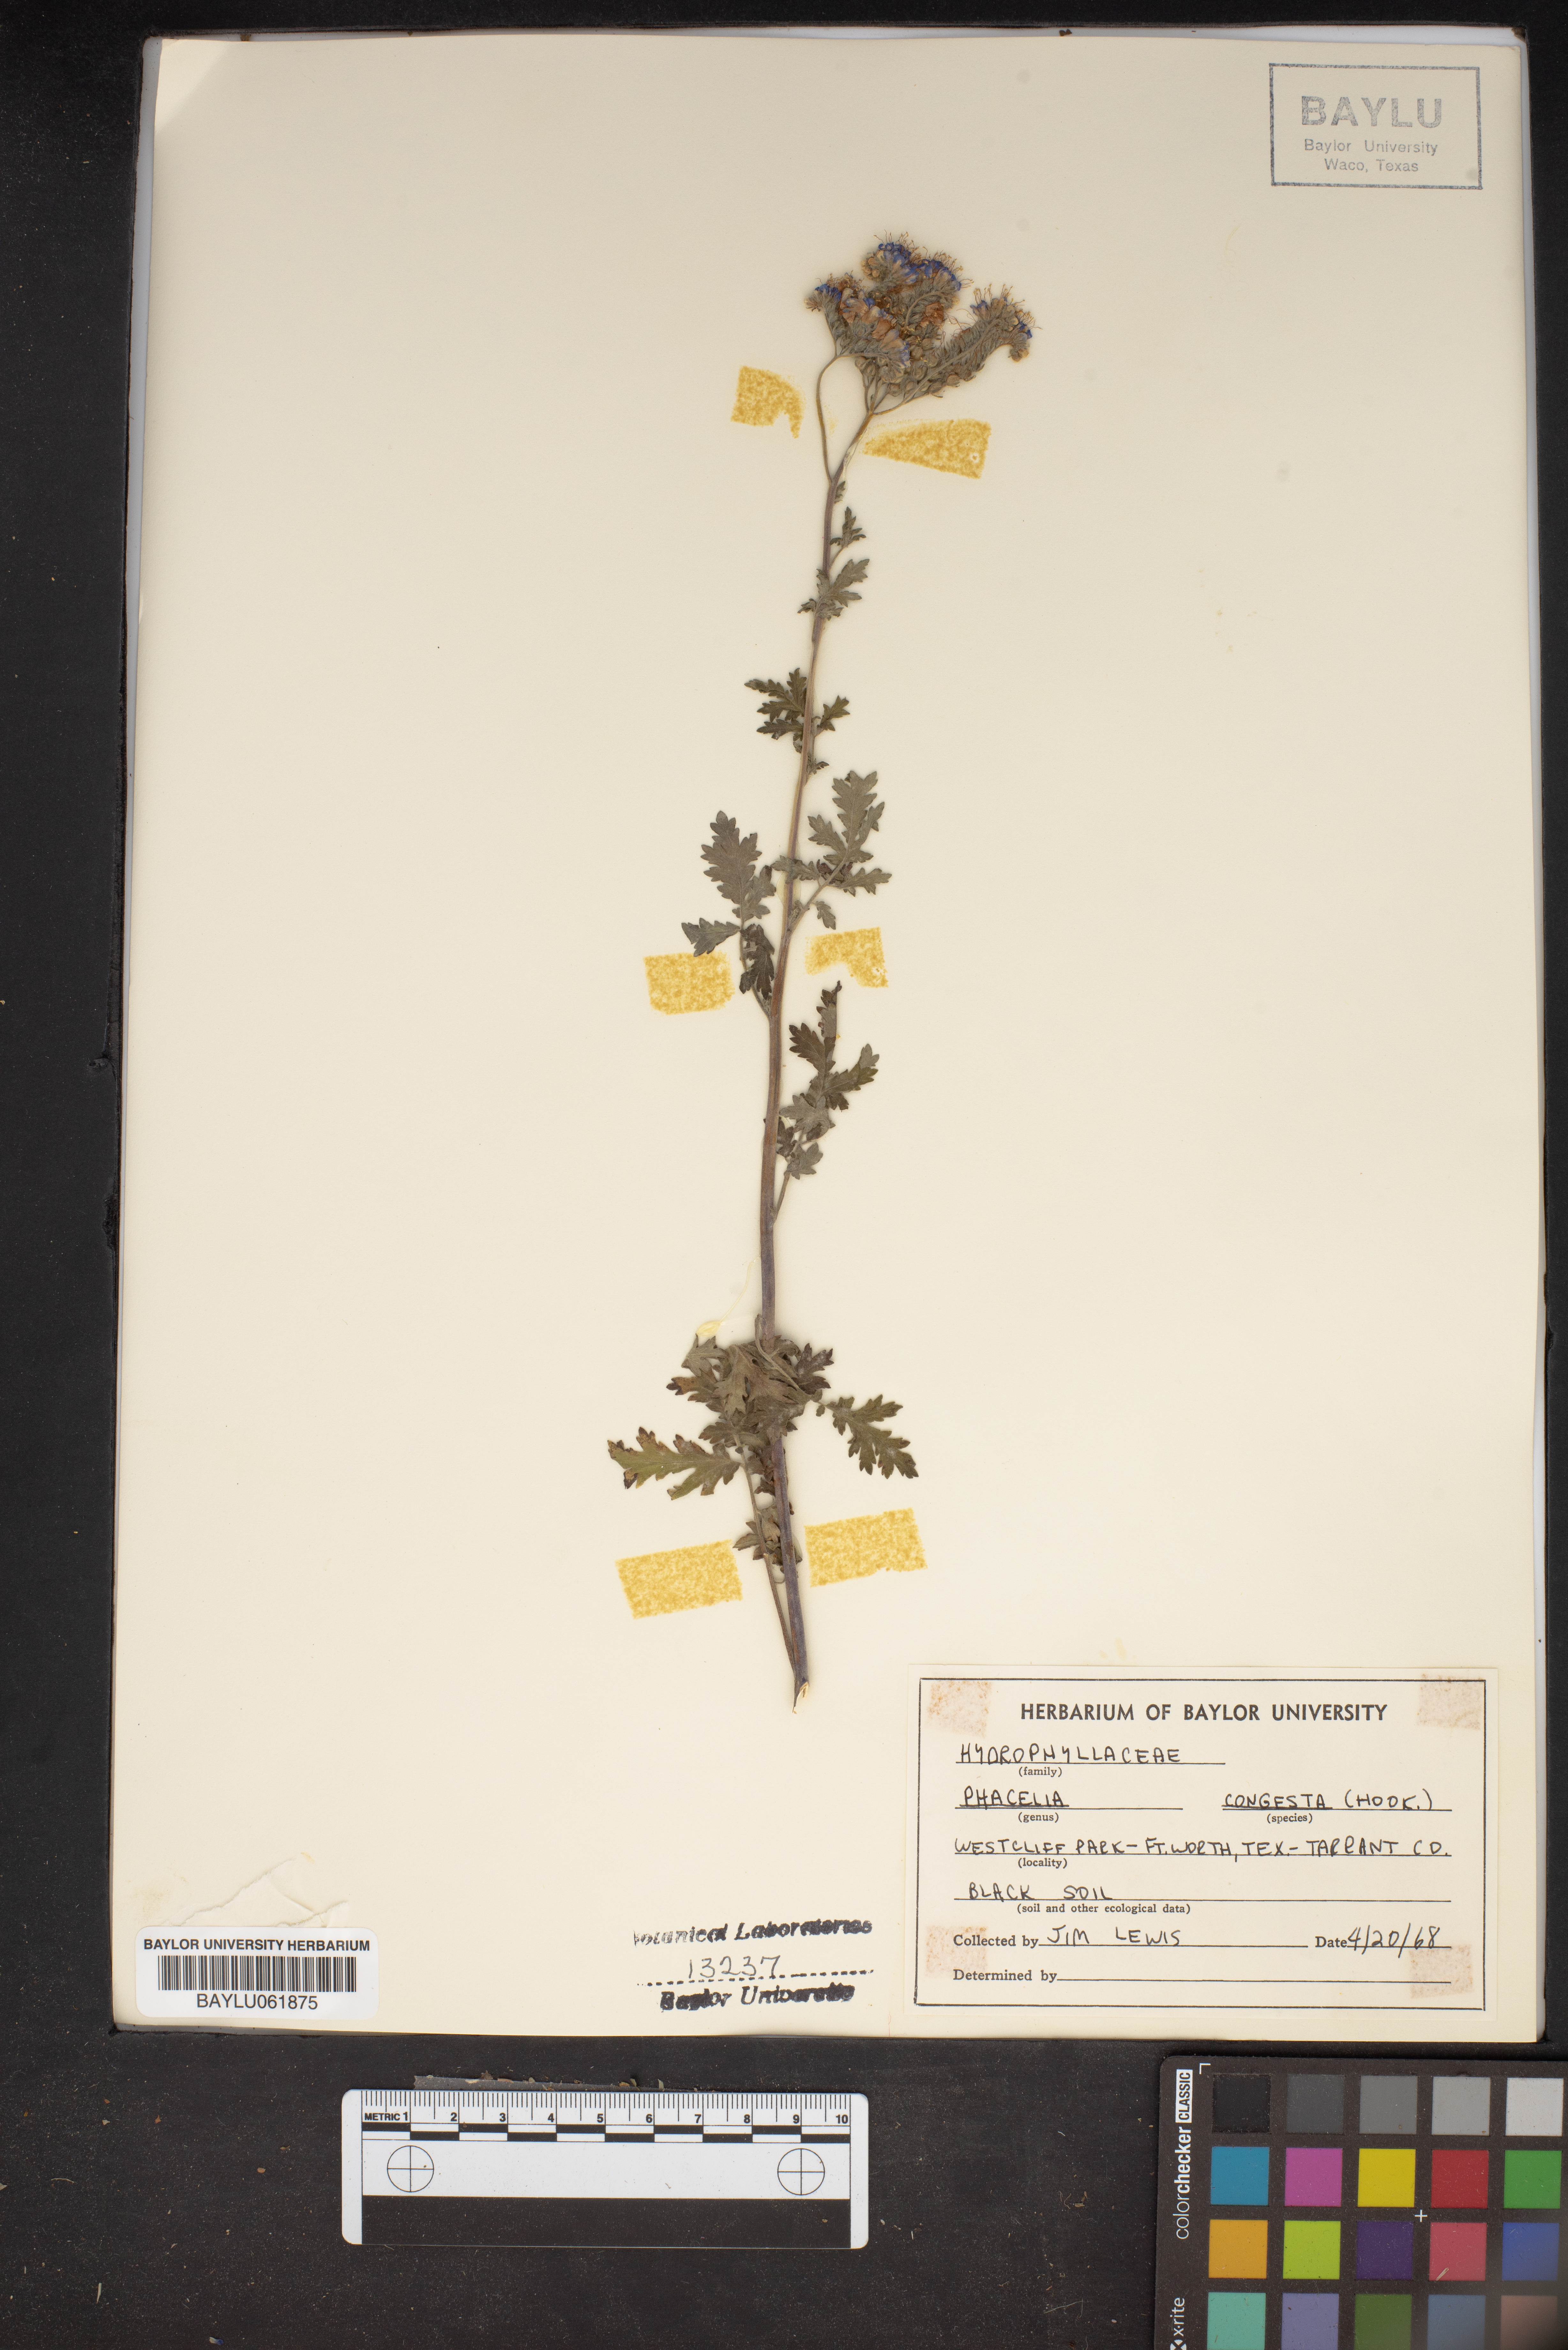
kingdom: Plantae
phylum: Tracheophyta
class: Magnoliopsida
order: Boraginales
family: Hydrophyllaceae
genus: Phacelia
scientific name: Phacelia congesta
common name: Blue curls
